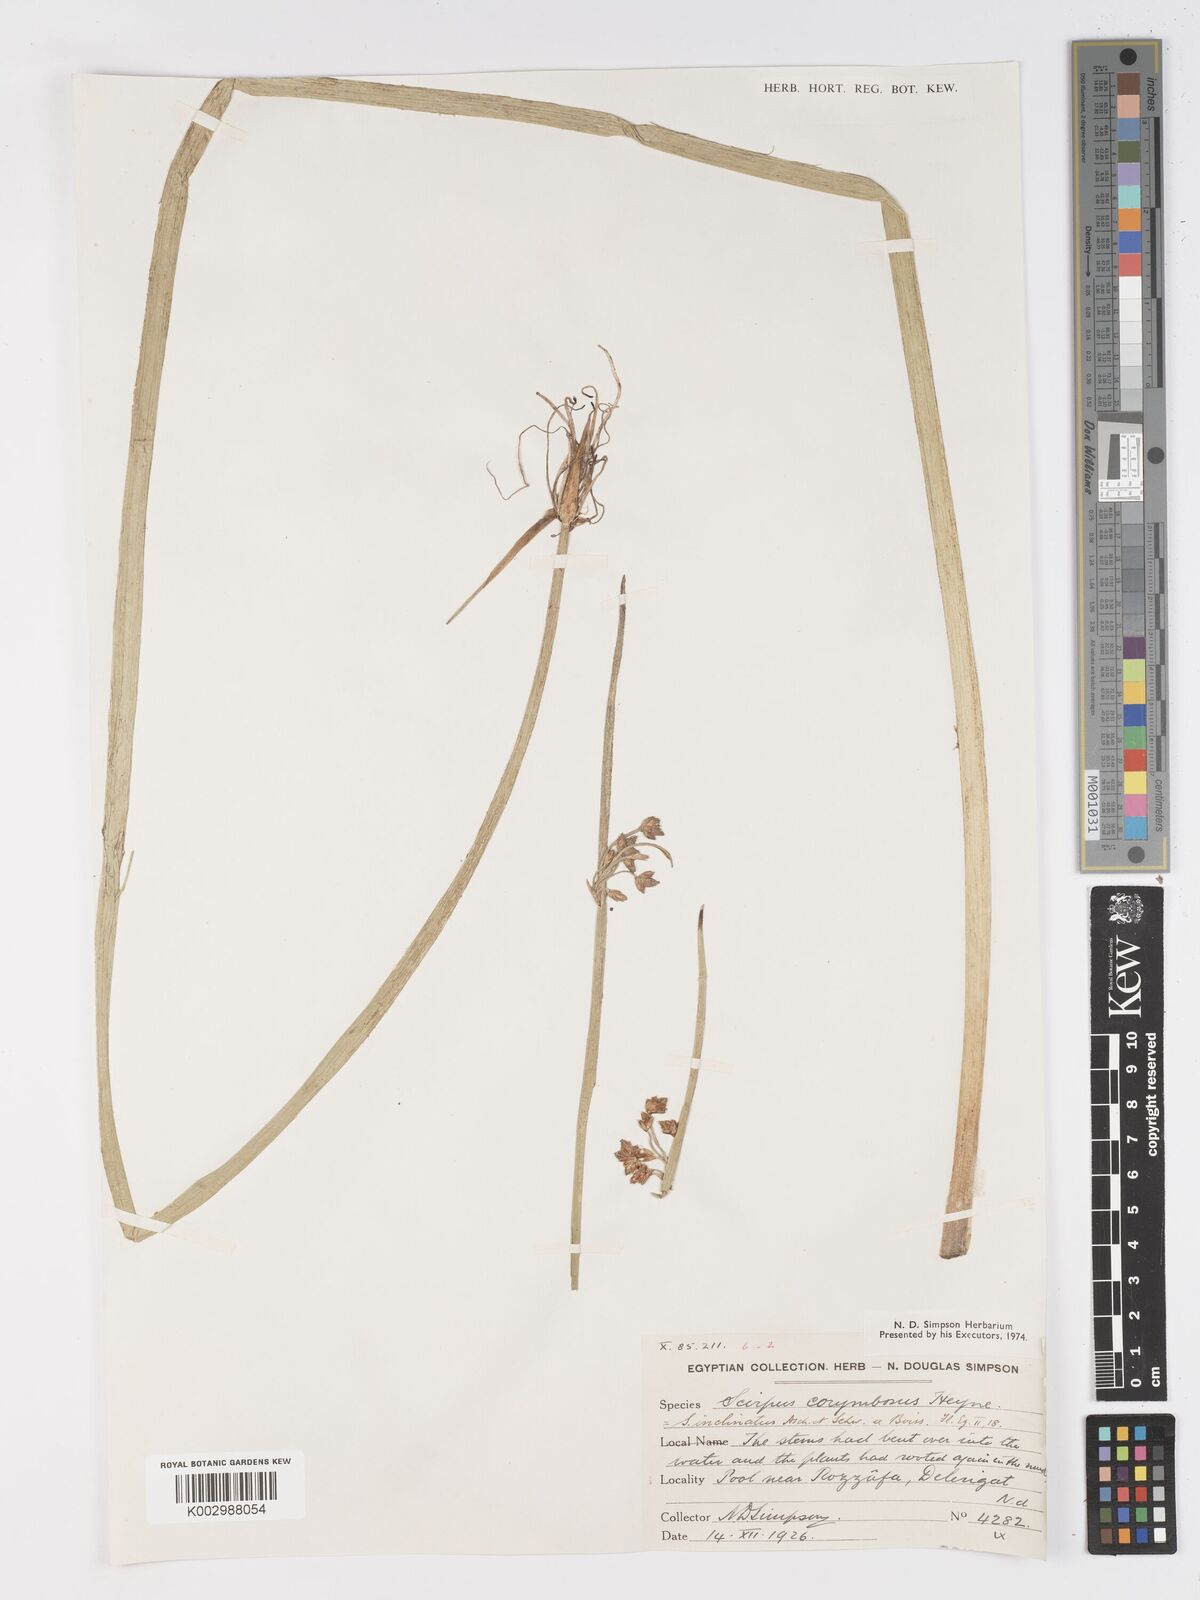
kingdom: Plantae
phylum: Tracheophyta
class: Liliopsida
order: Poales
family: Cyperaceae
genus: Schoenoplectiella
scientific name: Schoenoplectiella corymbosa
